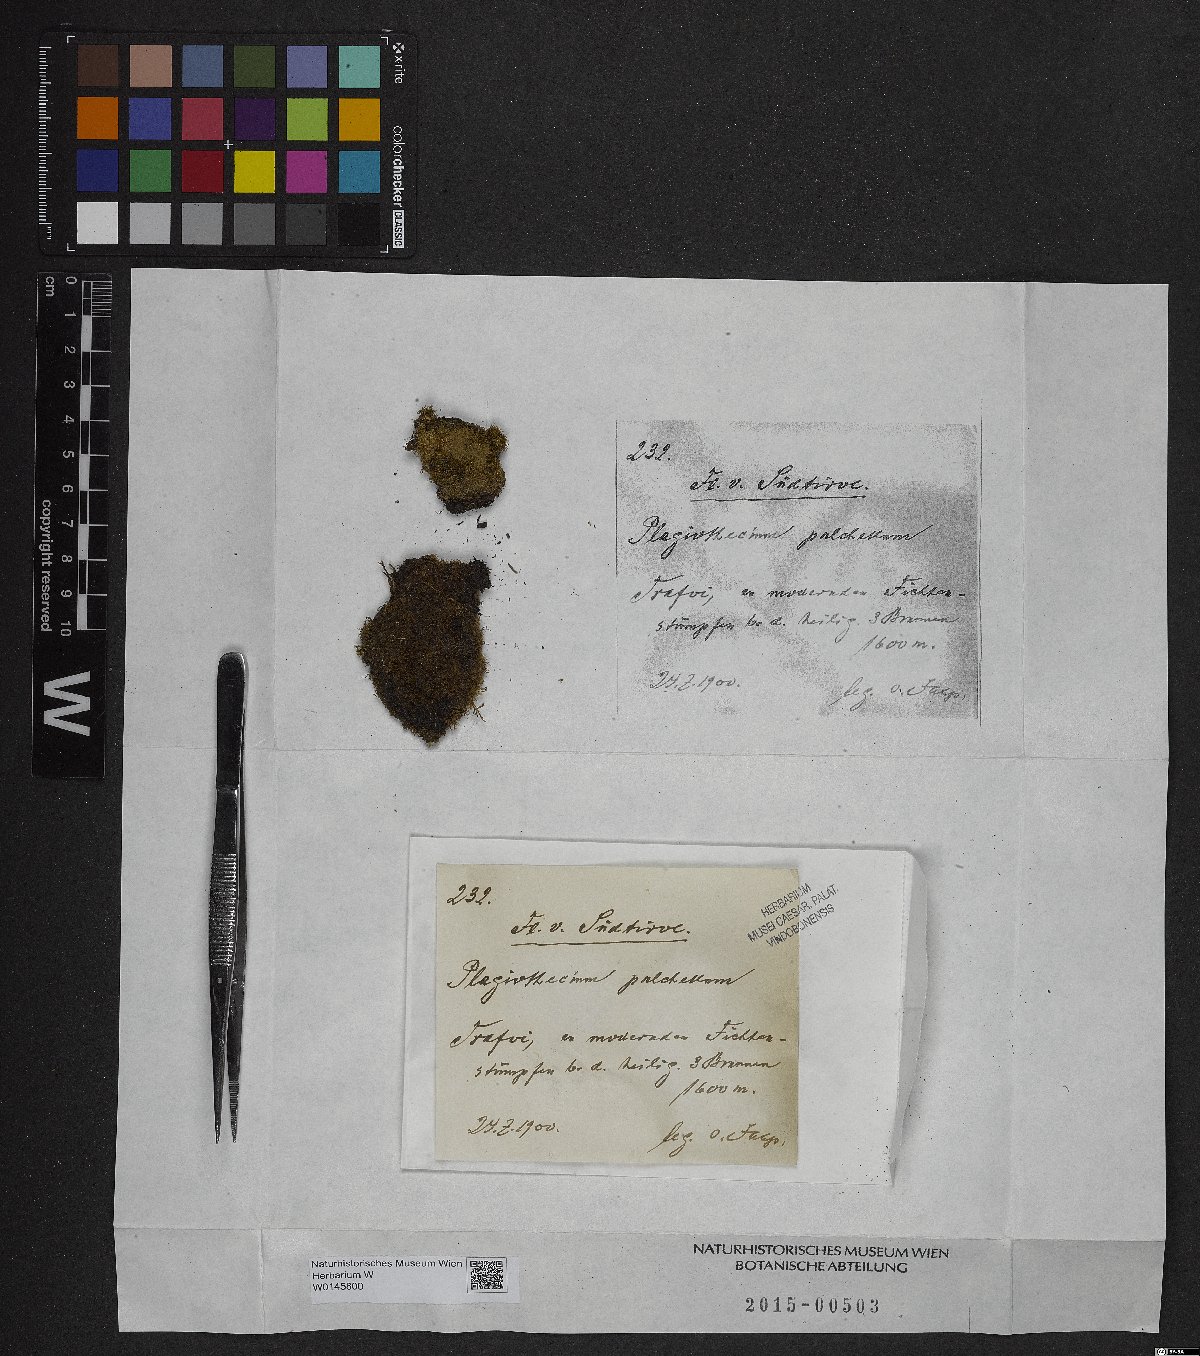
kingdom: Plantae
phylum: Bryophyta
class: Bryopsida
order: Hypnales
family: Plagiotheciaceae
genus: Isopterygiella
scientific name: Isopterygiella pulchella
